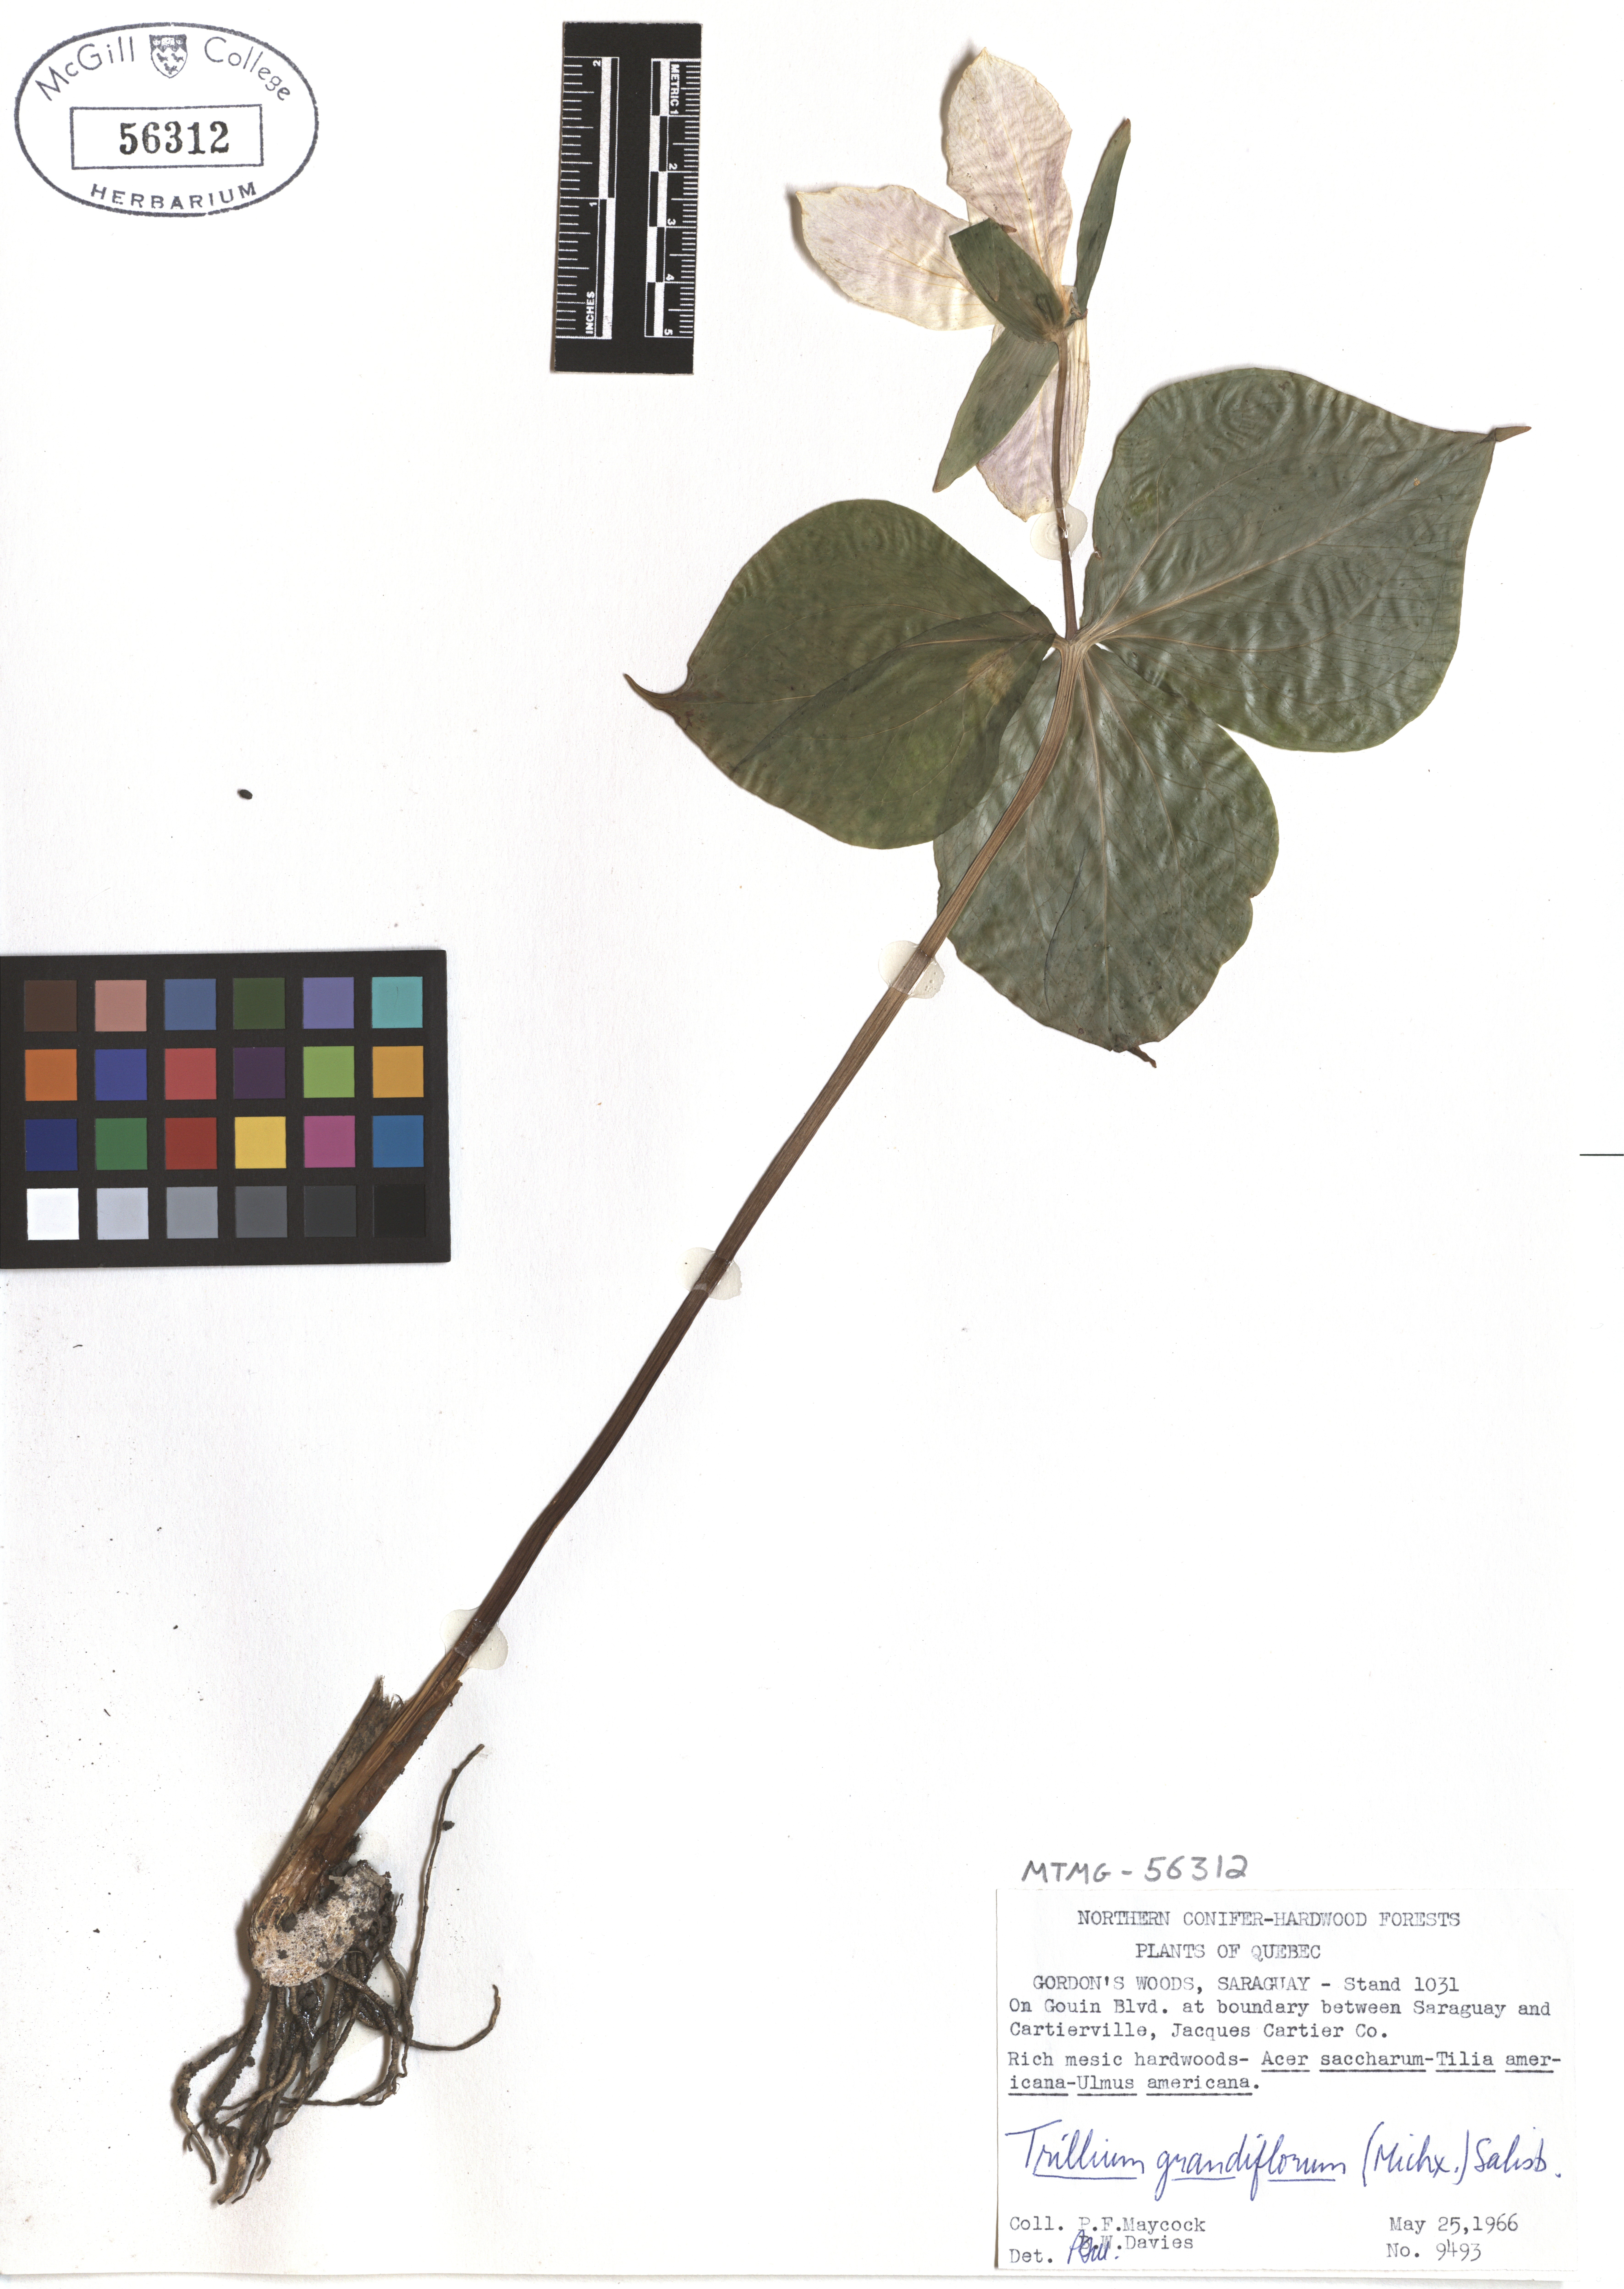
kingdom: Plantae
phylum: Tracheophyta
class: Liliopsida
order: Liliales
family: Melanthiaceae
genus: Trillium
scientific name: Trillium grandiflorum
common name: Great white trillium
